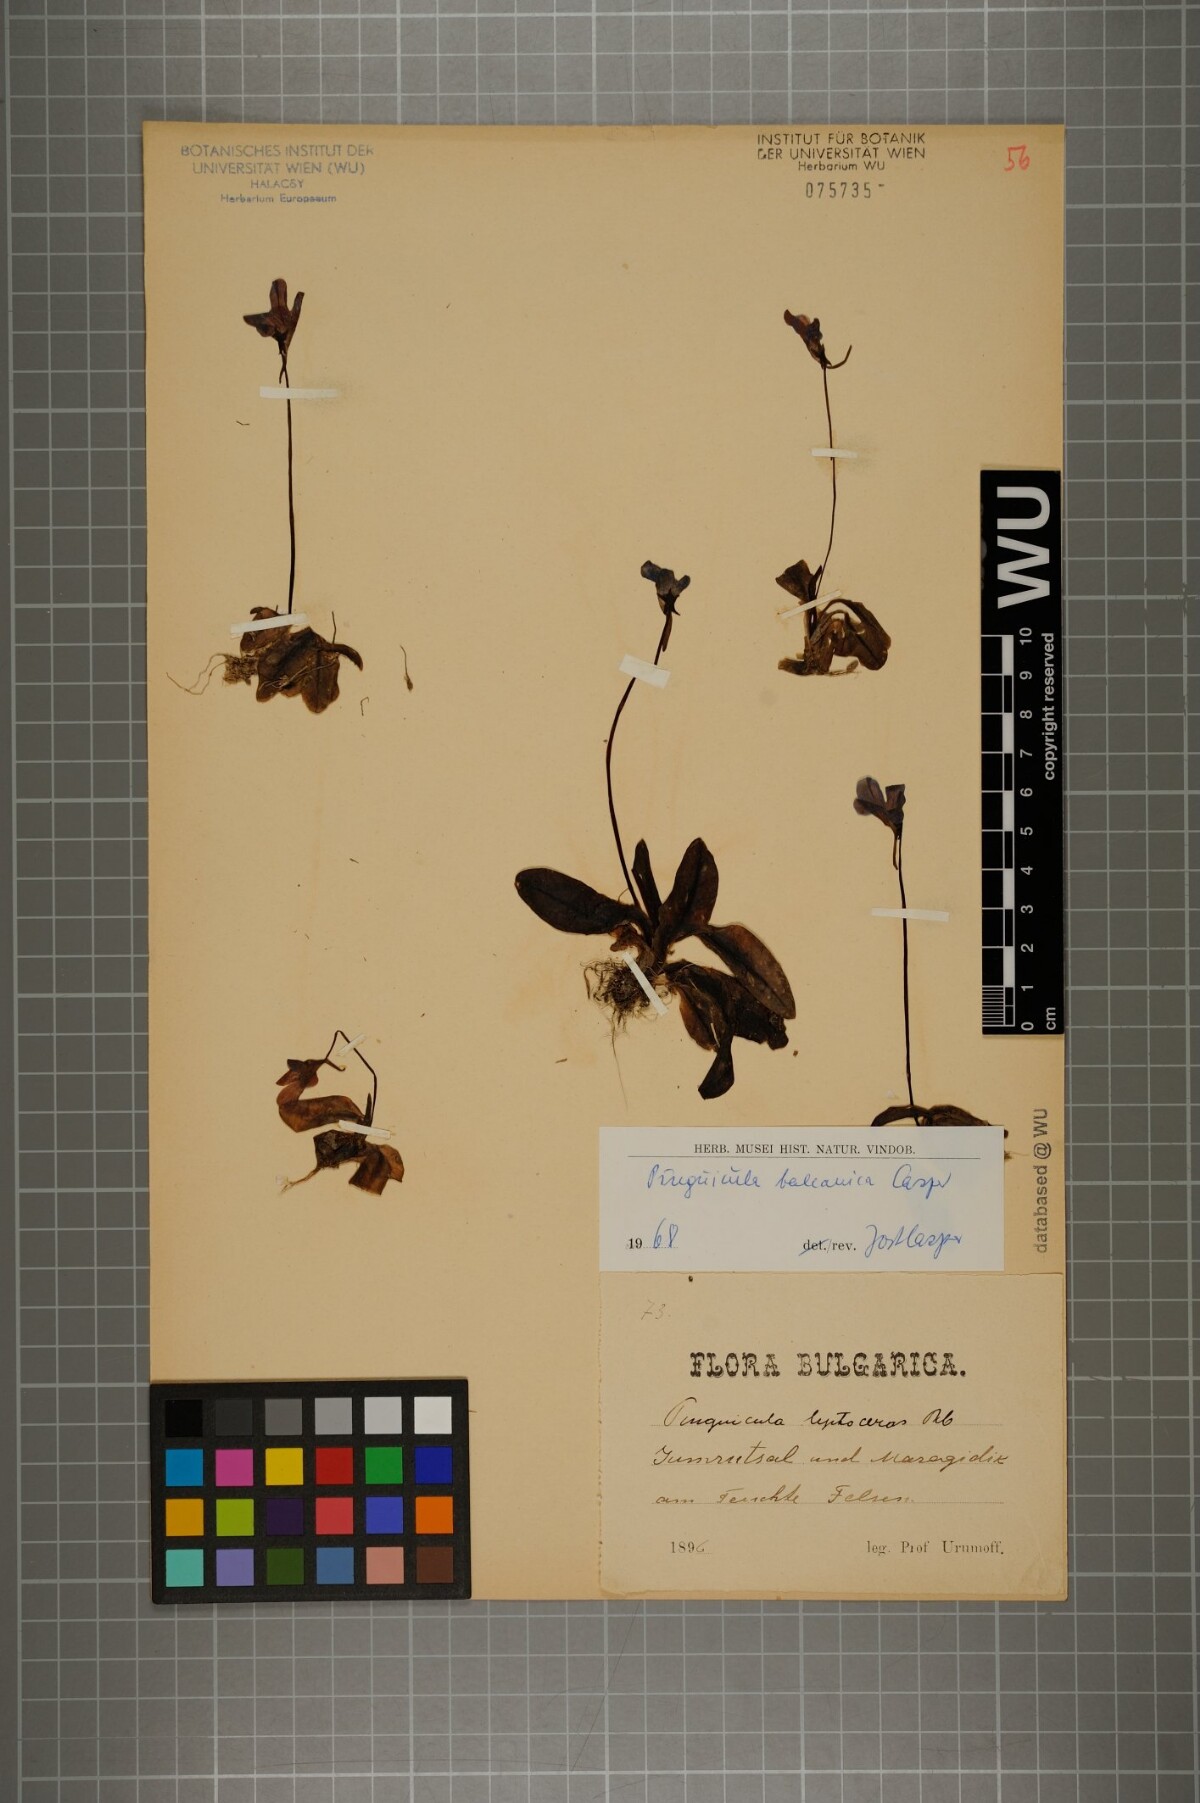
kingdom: Plantae
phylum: Tracheophyta
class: Magnoliopsida
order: Lamiales
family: Lentibulariaceae
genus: Pinguicula
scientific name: Pinguicula balcanica
